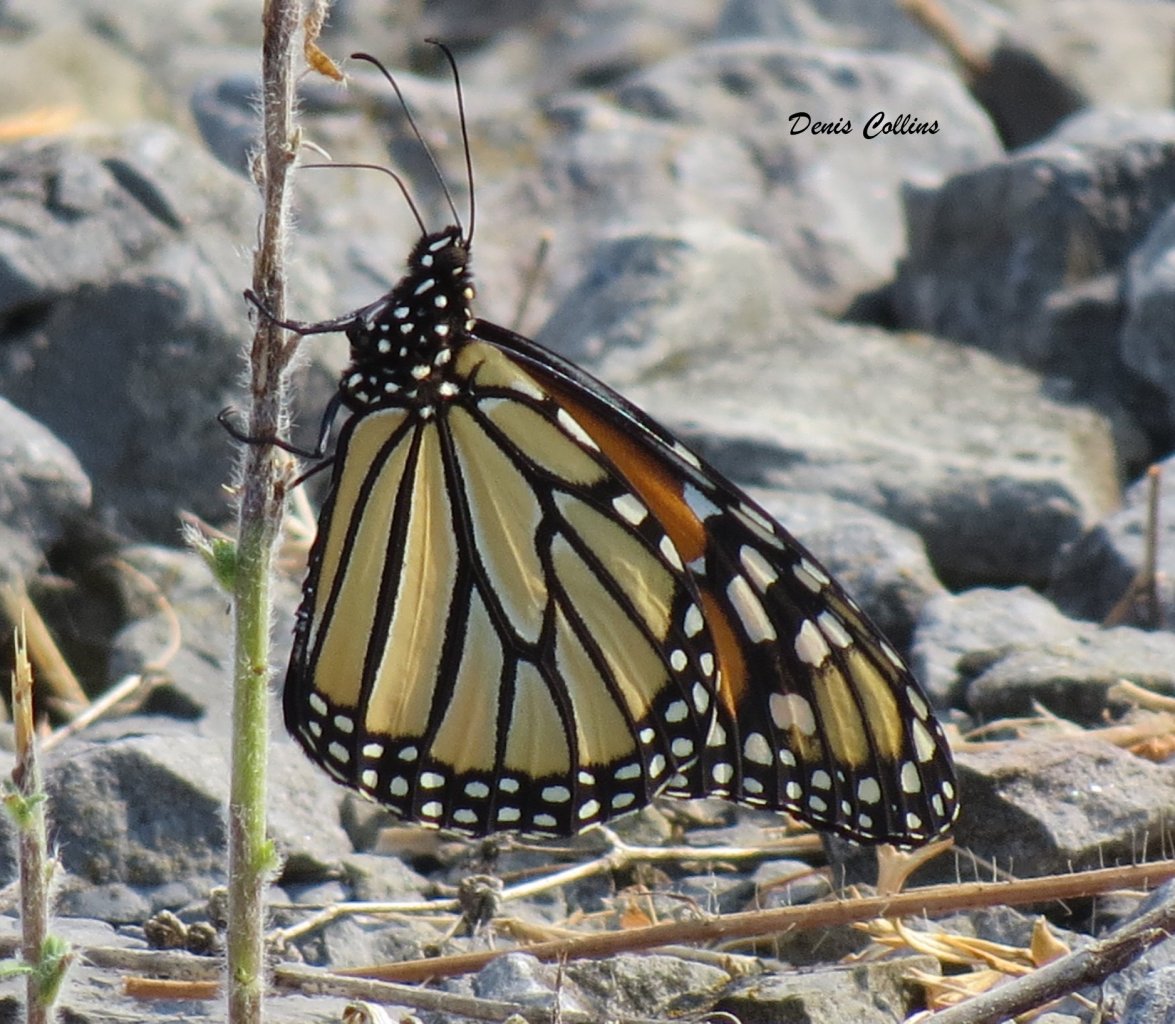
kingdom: Animalia
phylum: Arthropoda
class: Insecta
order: Lepidoptera
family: Nymphalidae
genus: Danaus
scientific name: Danaus plexippus
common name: Monarch
